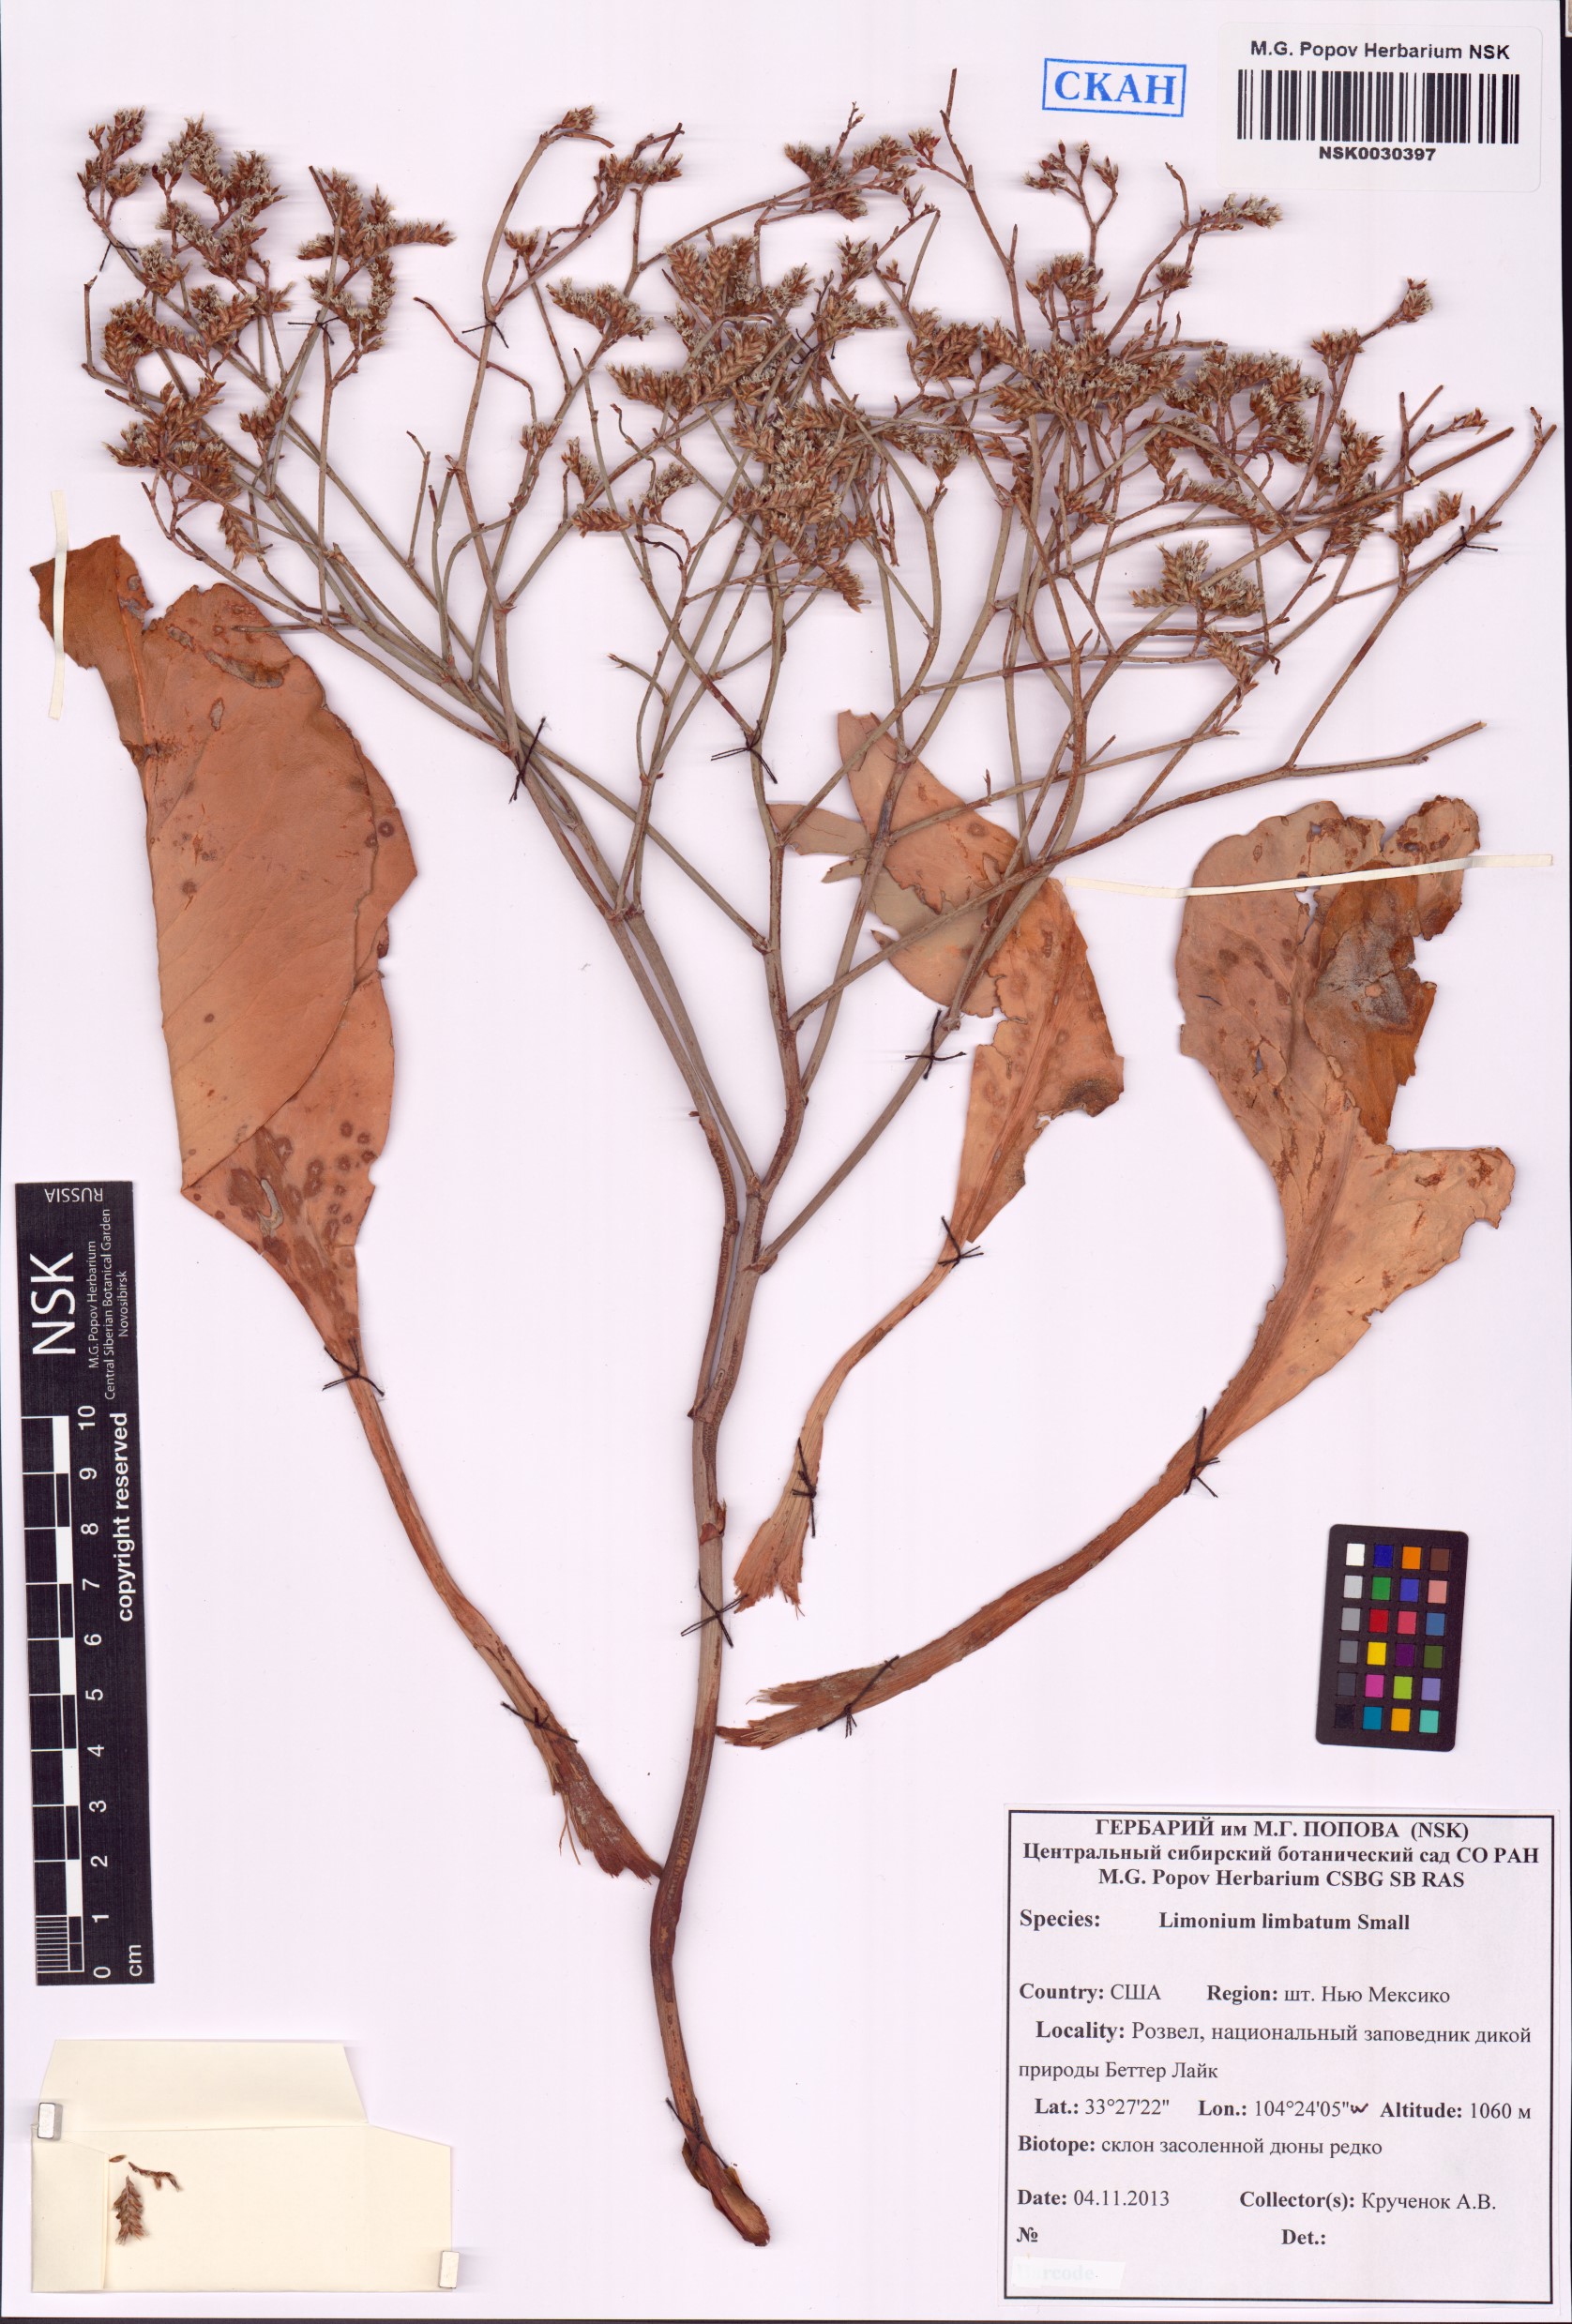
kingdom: Plantae
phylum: Tracheophyta
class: Magnoliopsida
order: Caryophyllales
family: Plumbaginaceae
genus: Limonium
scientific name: Limonium limbatum
